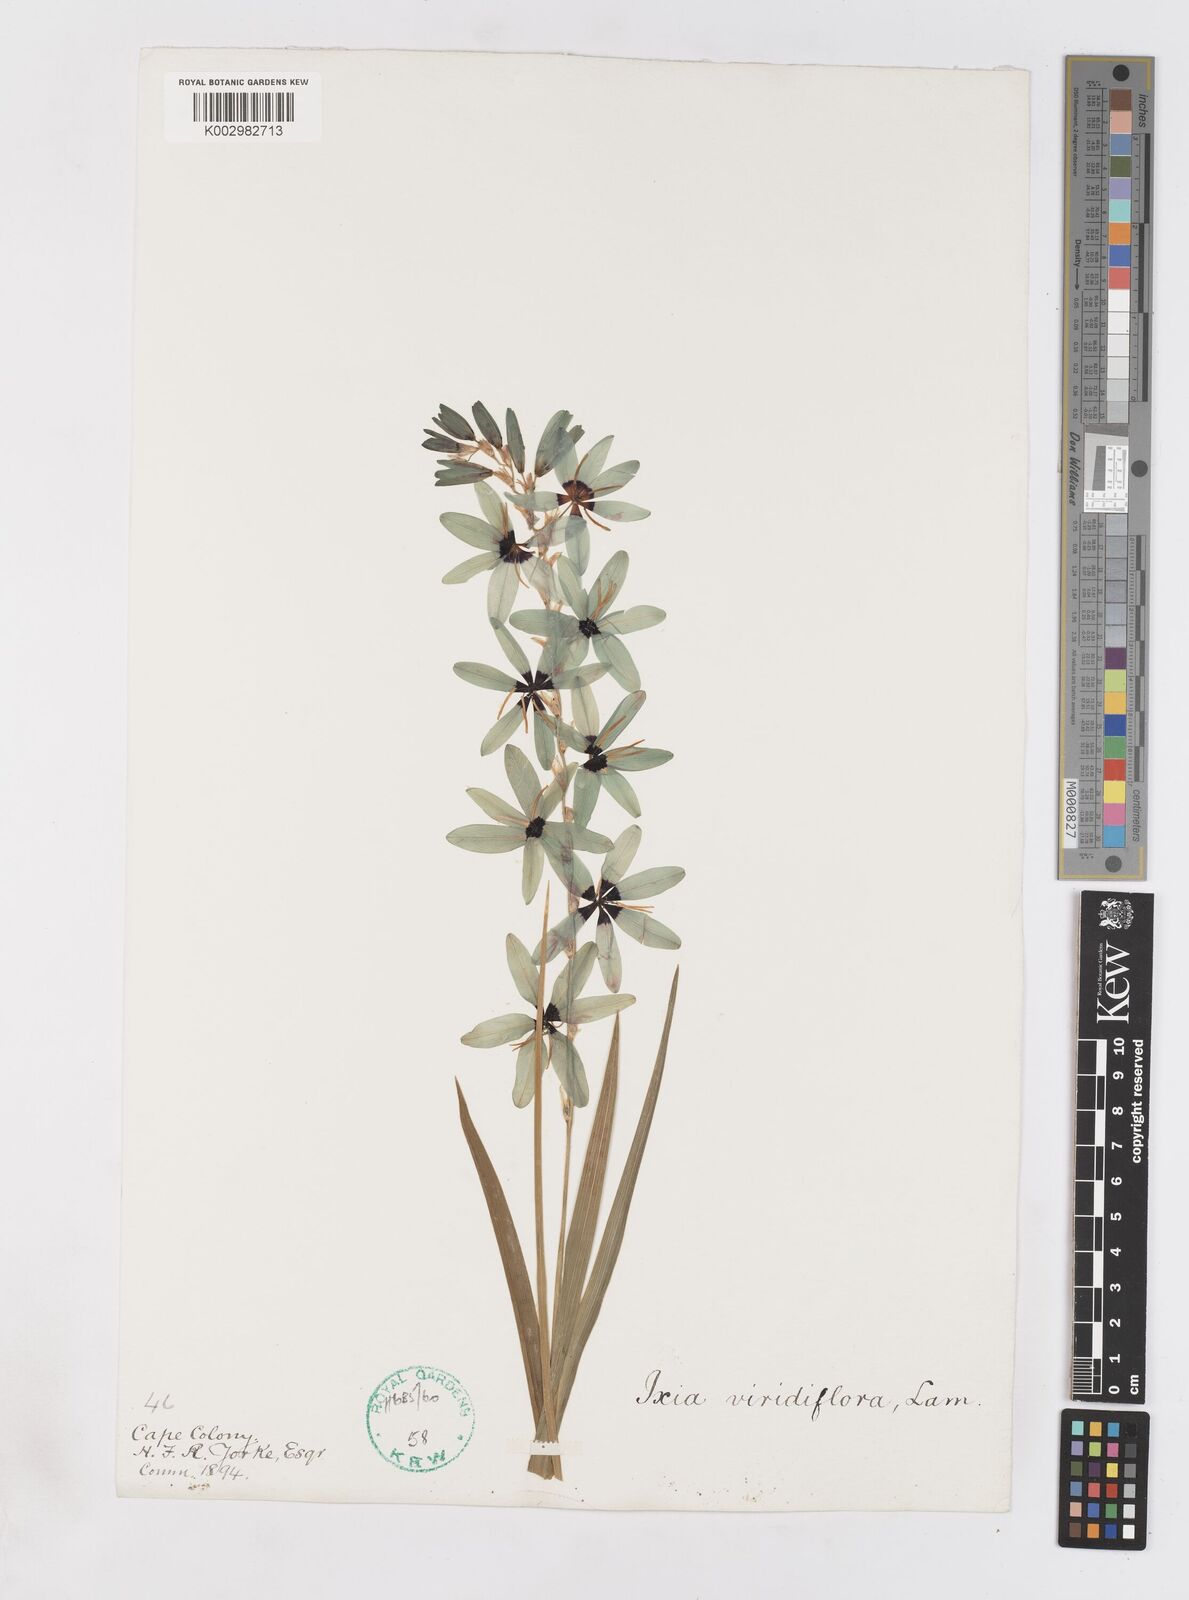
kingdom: Plantae
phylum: Tracheophyta
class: Liliopsida
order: Asparagales
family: Iridaceae
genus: Ixia
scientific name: Ixia viridiflora
